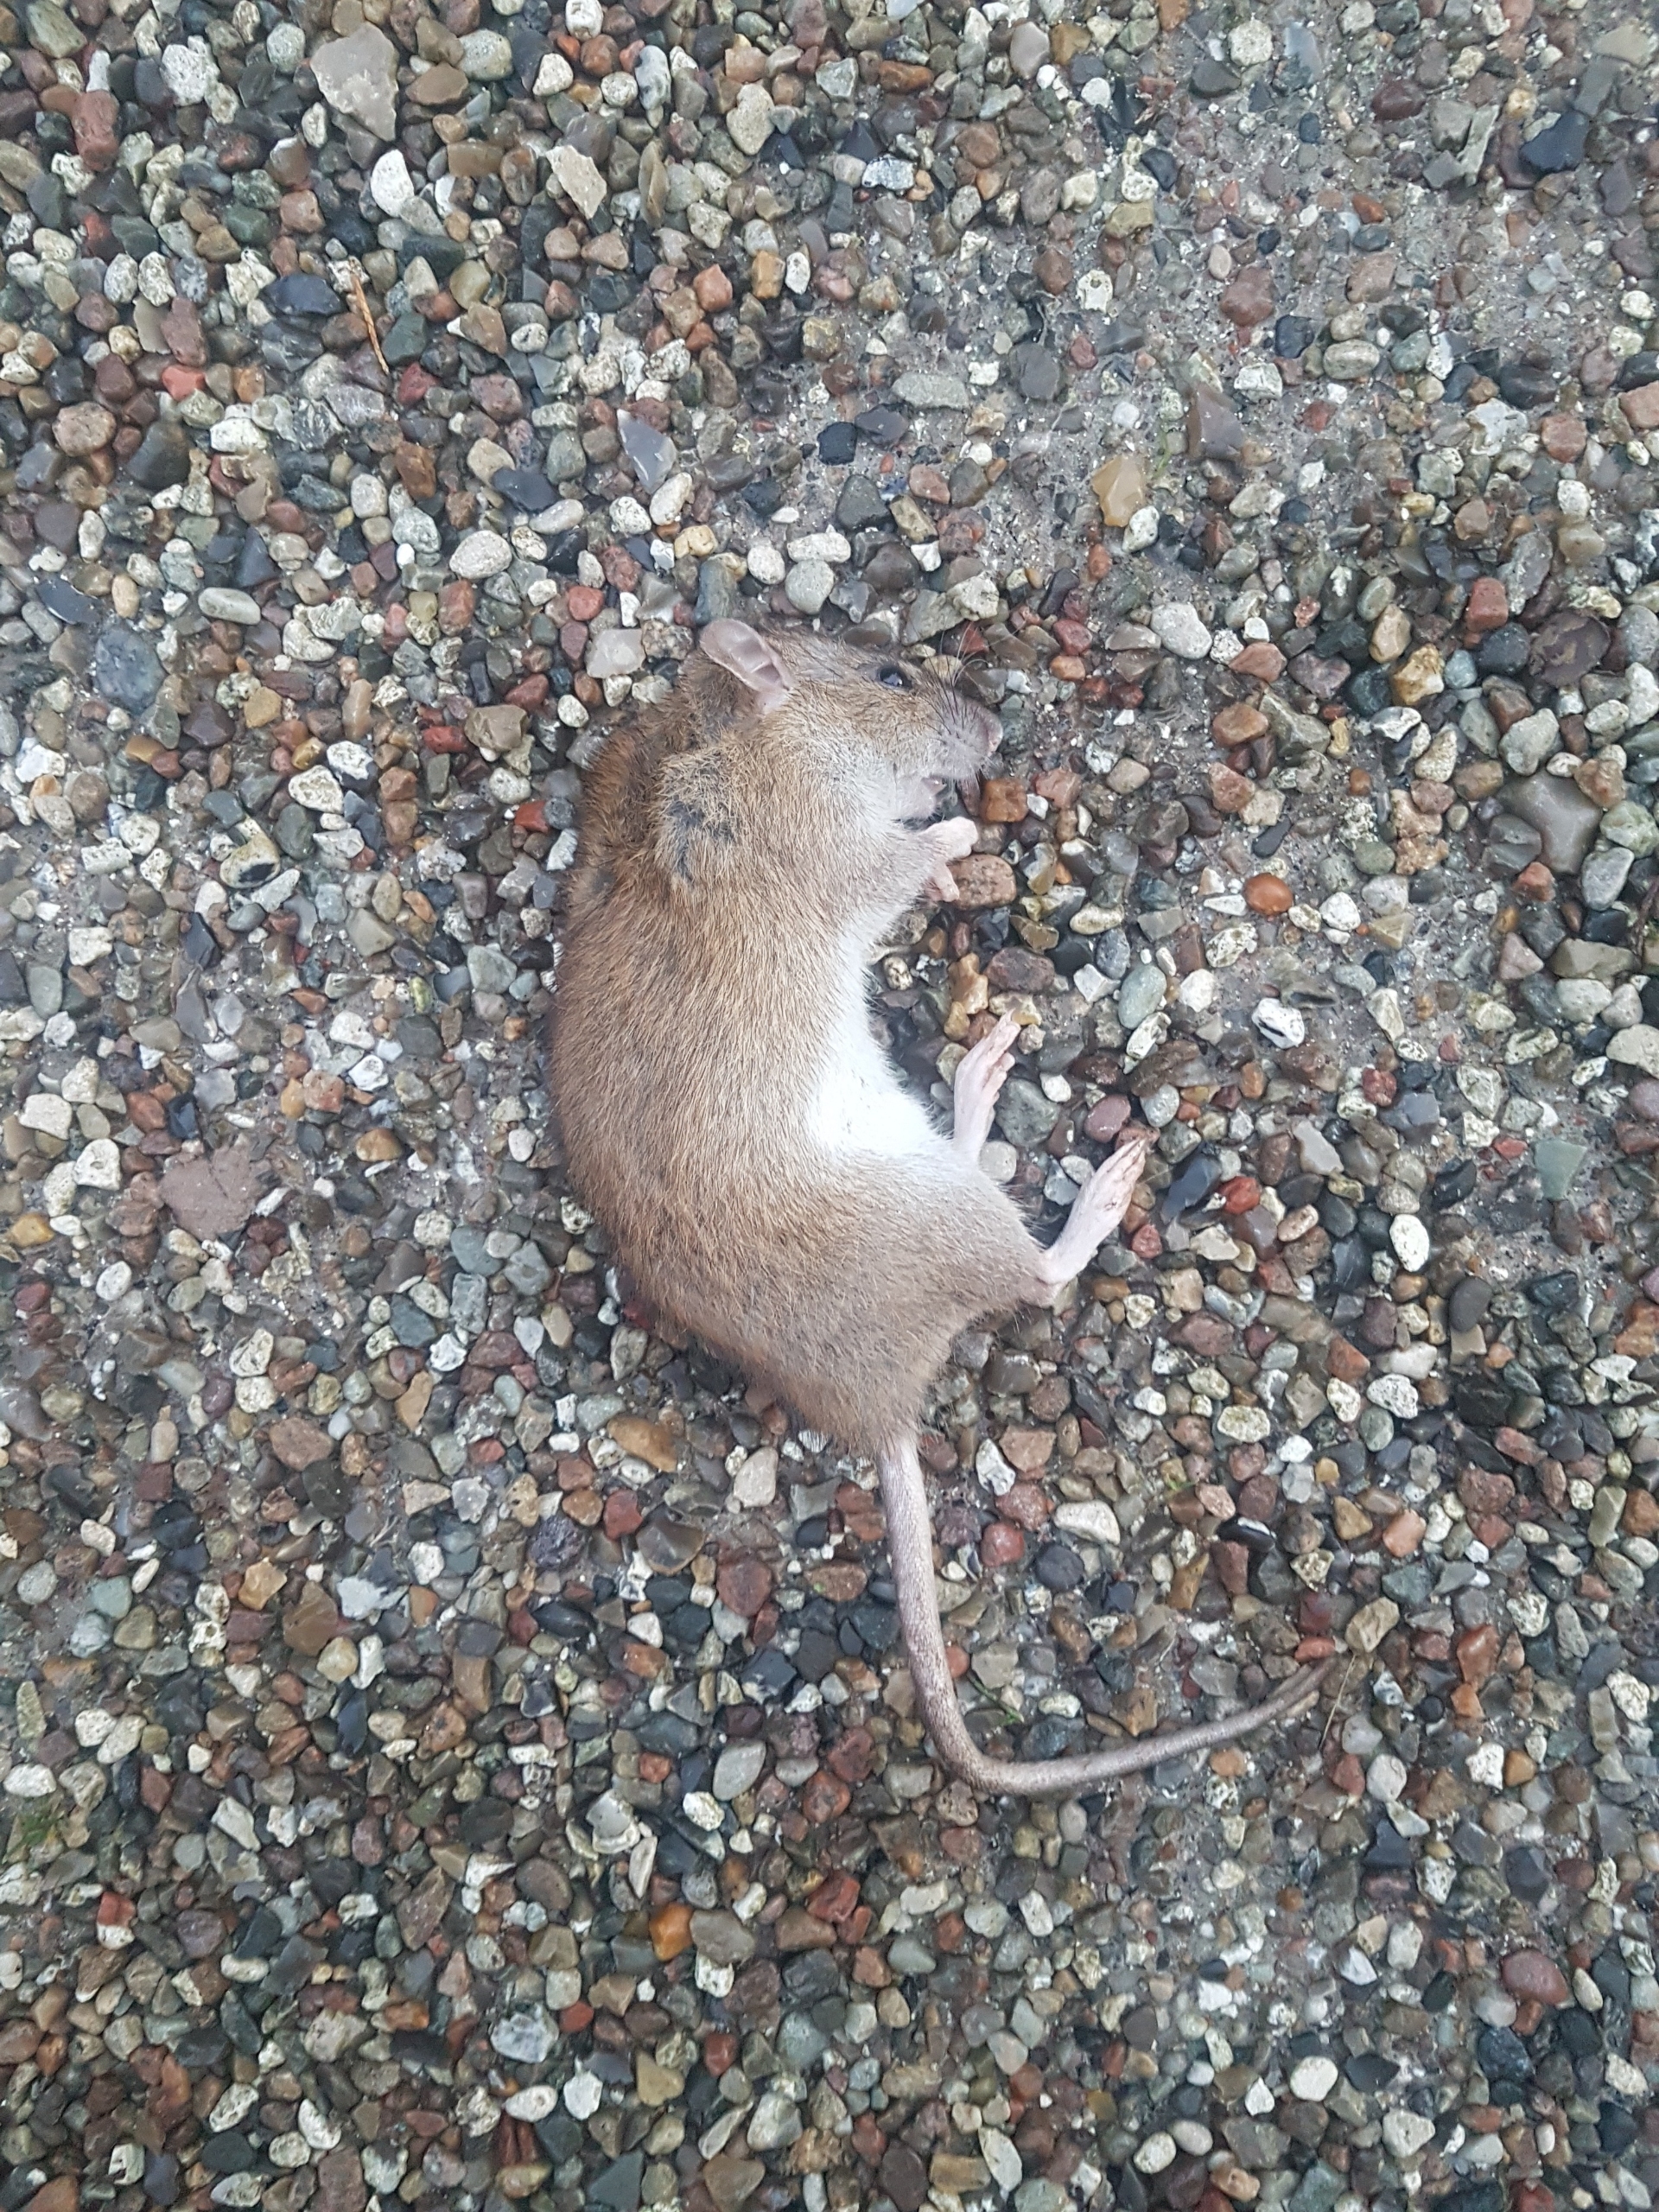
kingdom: Animalia
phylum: Chordata
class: Mammalia
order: Rodentia
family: Muridae
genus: Rattus
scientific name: Rattus norvegicus
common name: Brun rotte
